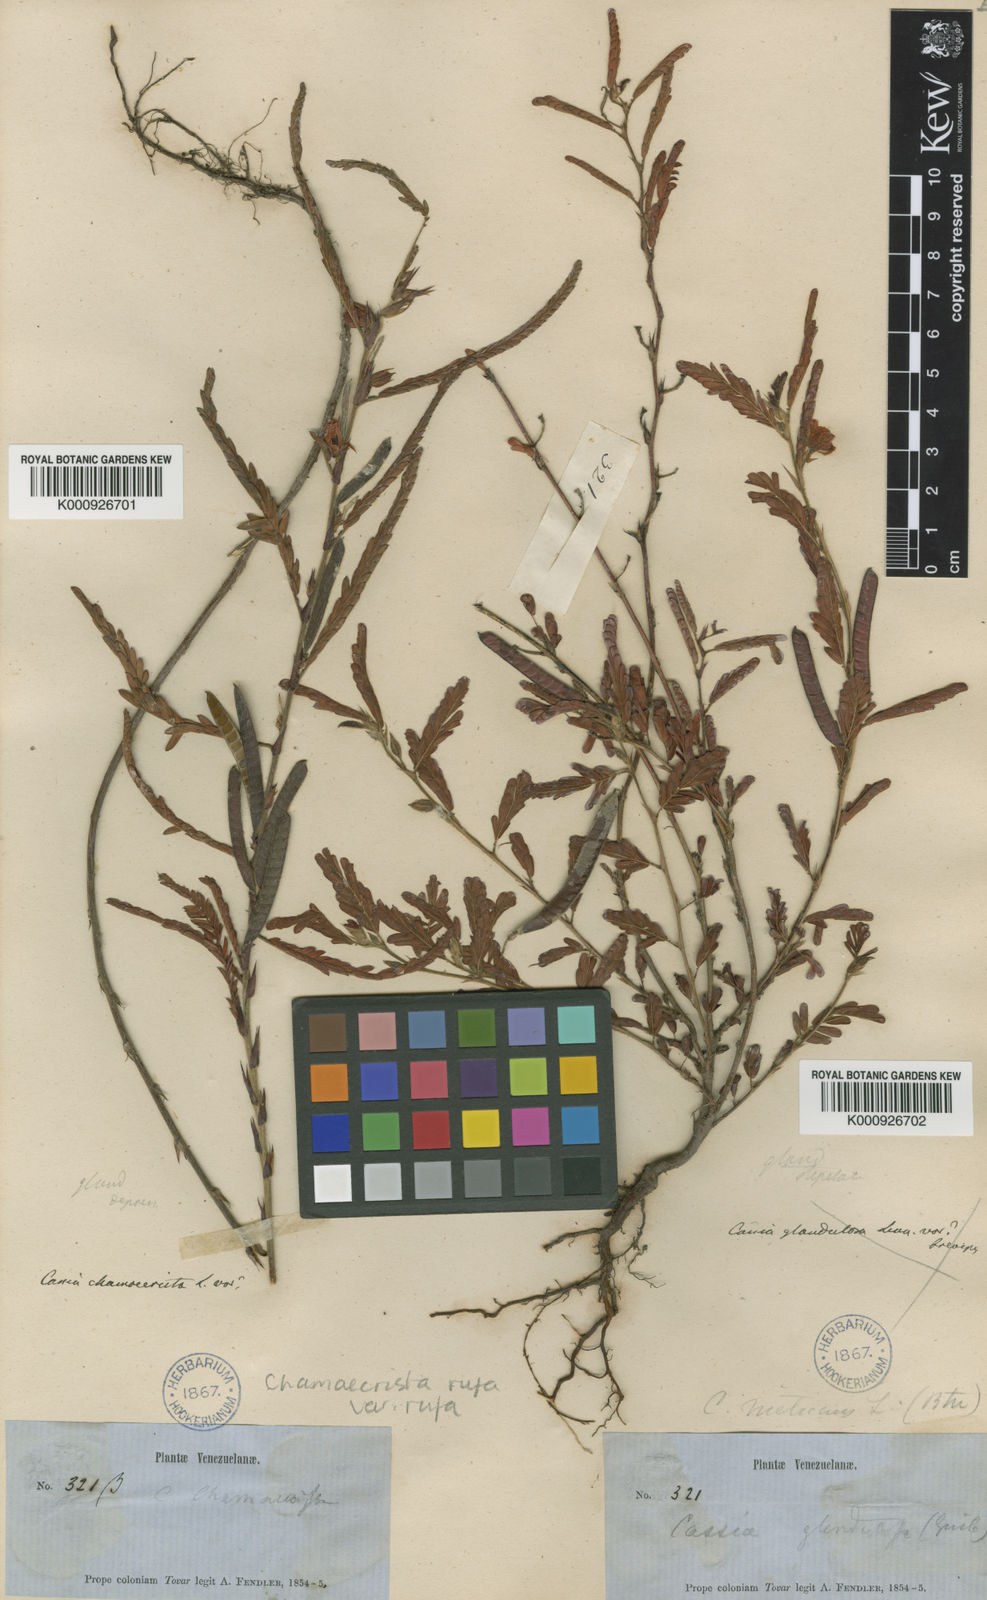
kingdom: Plantae
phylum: Tracheophyta
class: Magnoliopsida
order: Fabales
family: Fabaceae
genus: Chamaecrista
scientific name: Chamaecrista rufa
